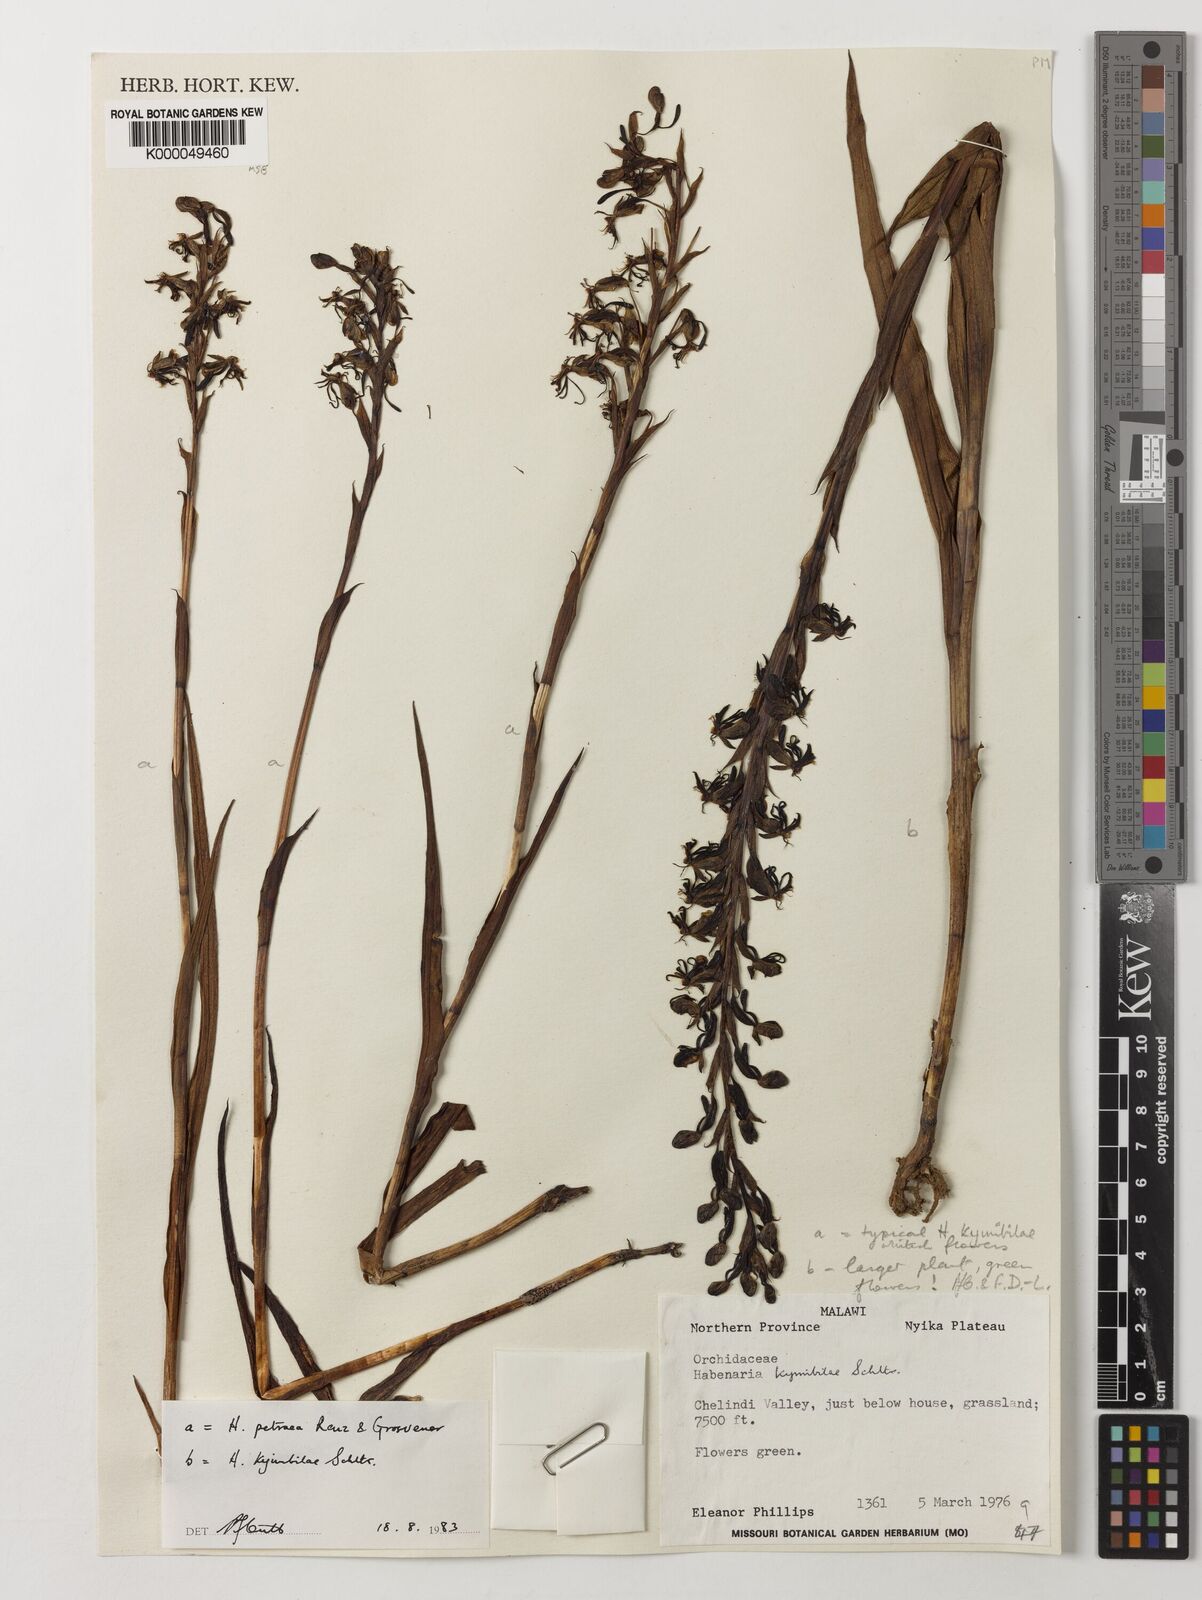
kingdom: Plantae
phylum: Tracheophyta
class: Liliopsida
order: Asparagales
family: Orchidaceae
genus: Habenaria
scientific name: Habenaria petraea
